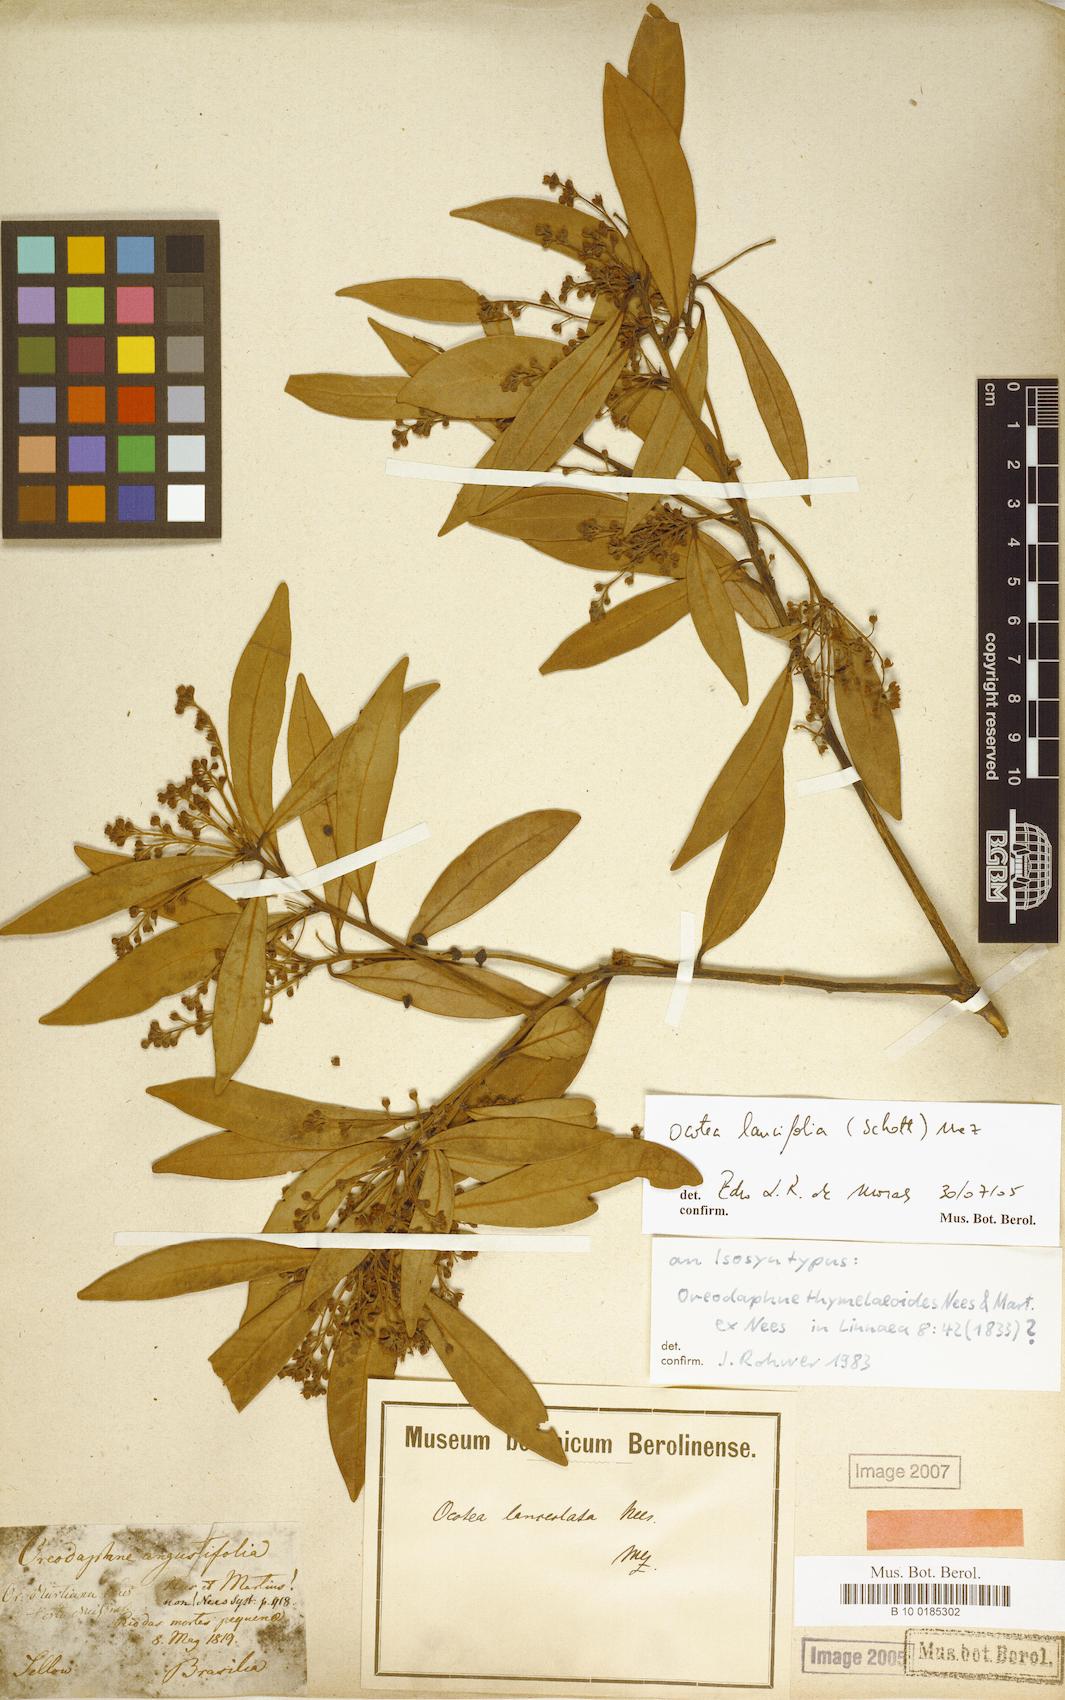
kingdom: Plantae
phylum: Tracheophyta
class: Magnoliopsida
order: Laurales
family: Lauraceae
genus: Ocotea
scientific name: Ocotea lancifolia
